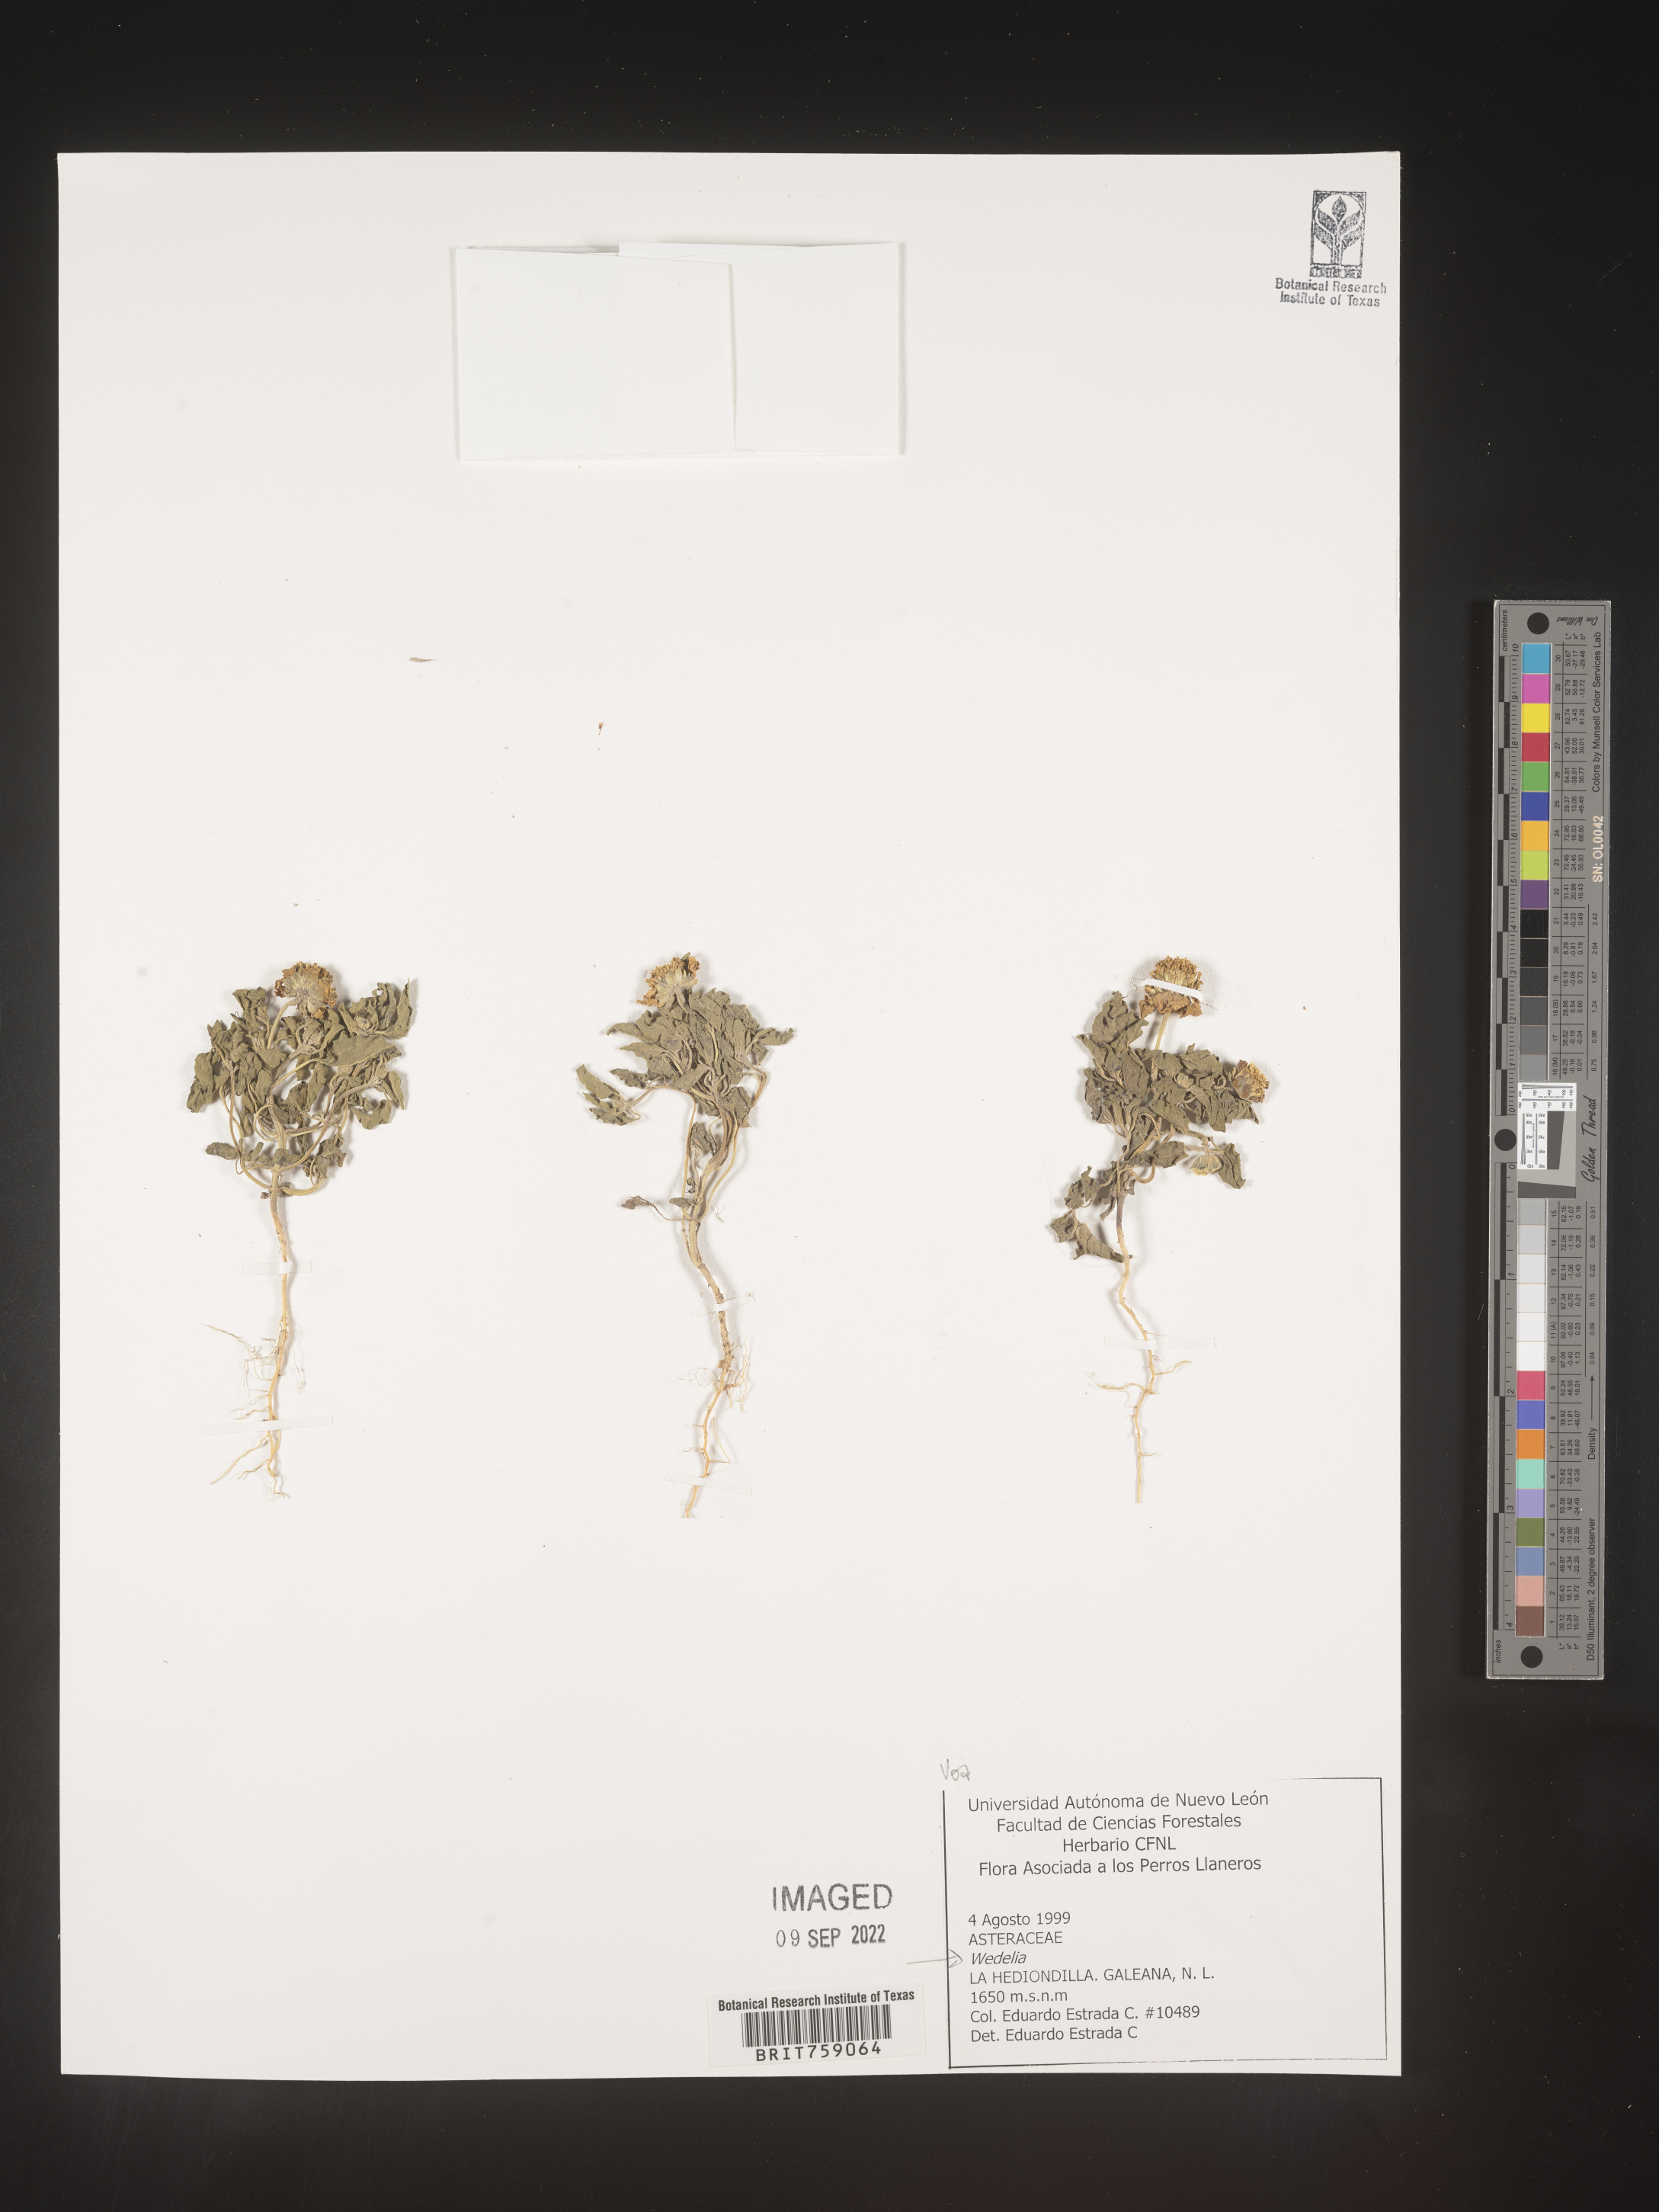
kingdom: Plantae
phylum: Tracheophyta
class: Magnoliopsida
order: Asterales
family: Asteraceae
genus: Wedelia
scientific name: Wedelia
